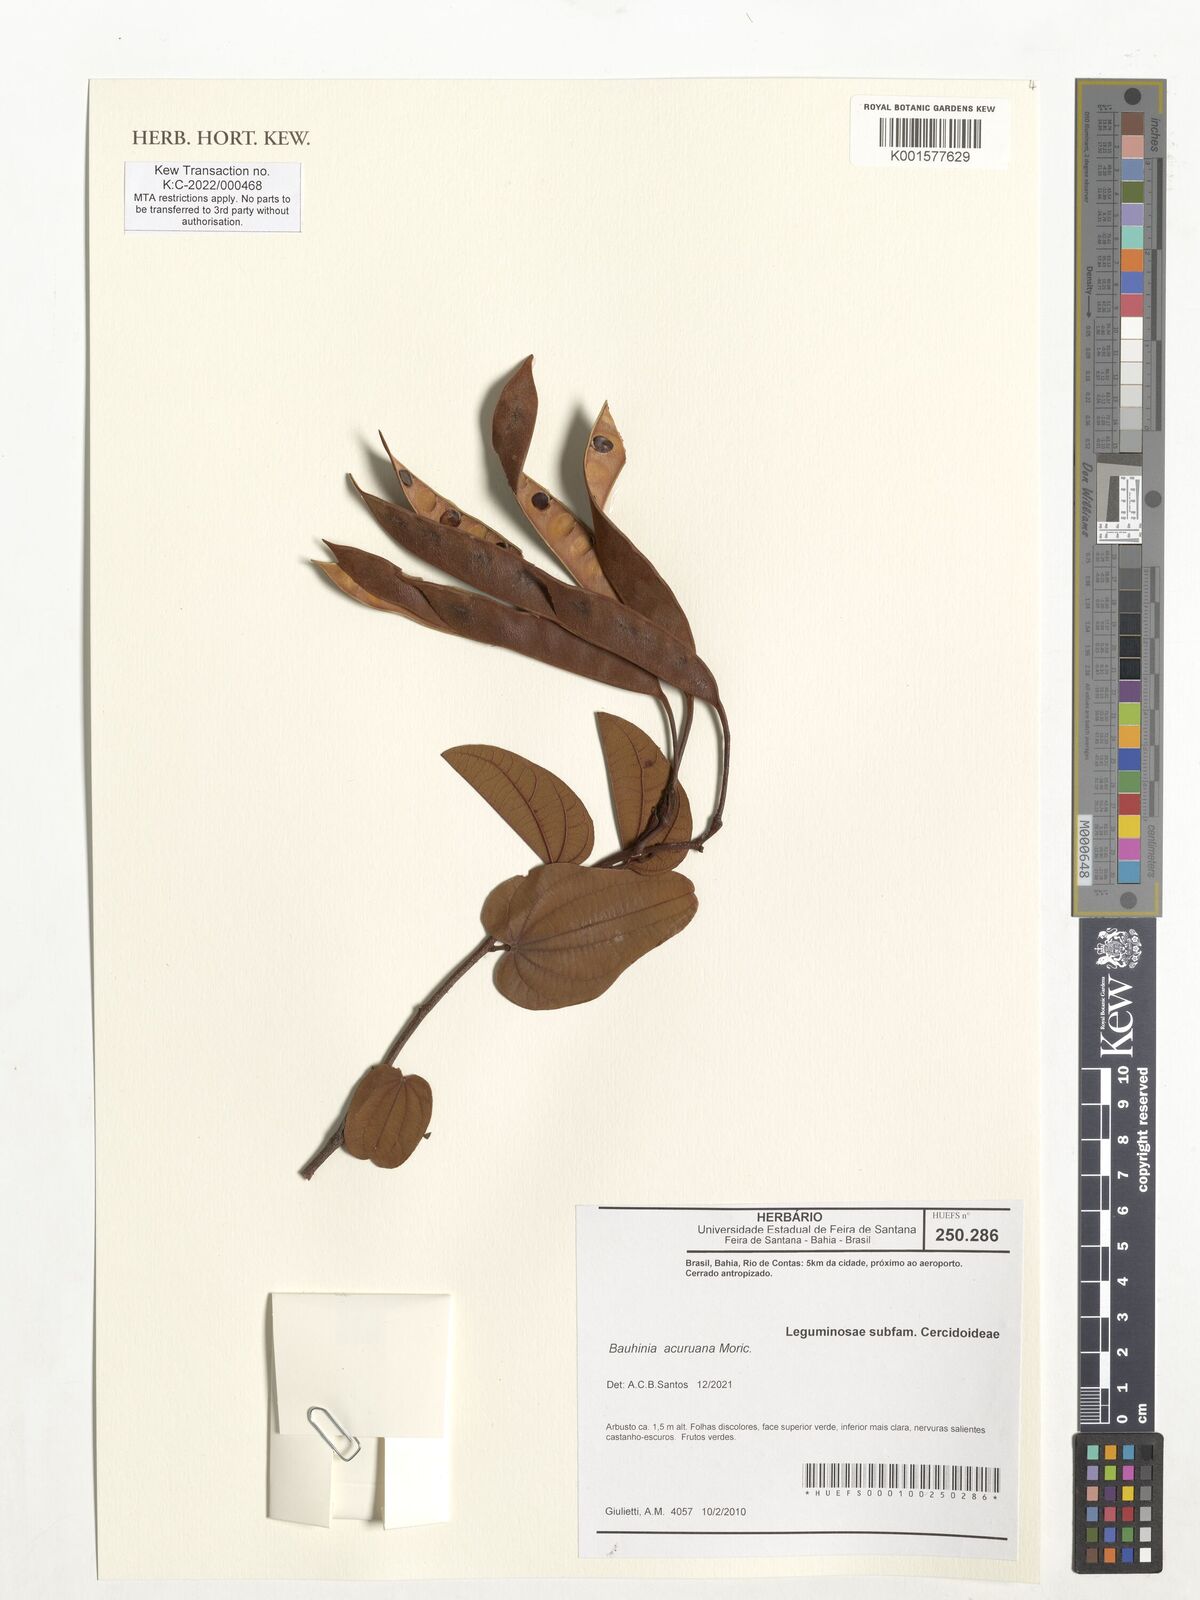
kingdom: Plantae
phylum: Tracheophyta
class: Magnoliopsida
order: Fabales
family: Fabaceae
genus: Bauhinia
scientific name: Bauhinia acuruana
